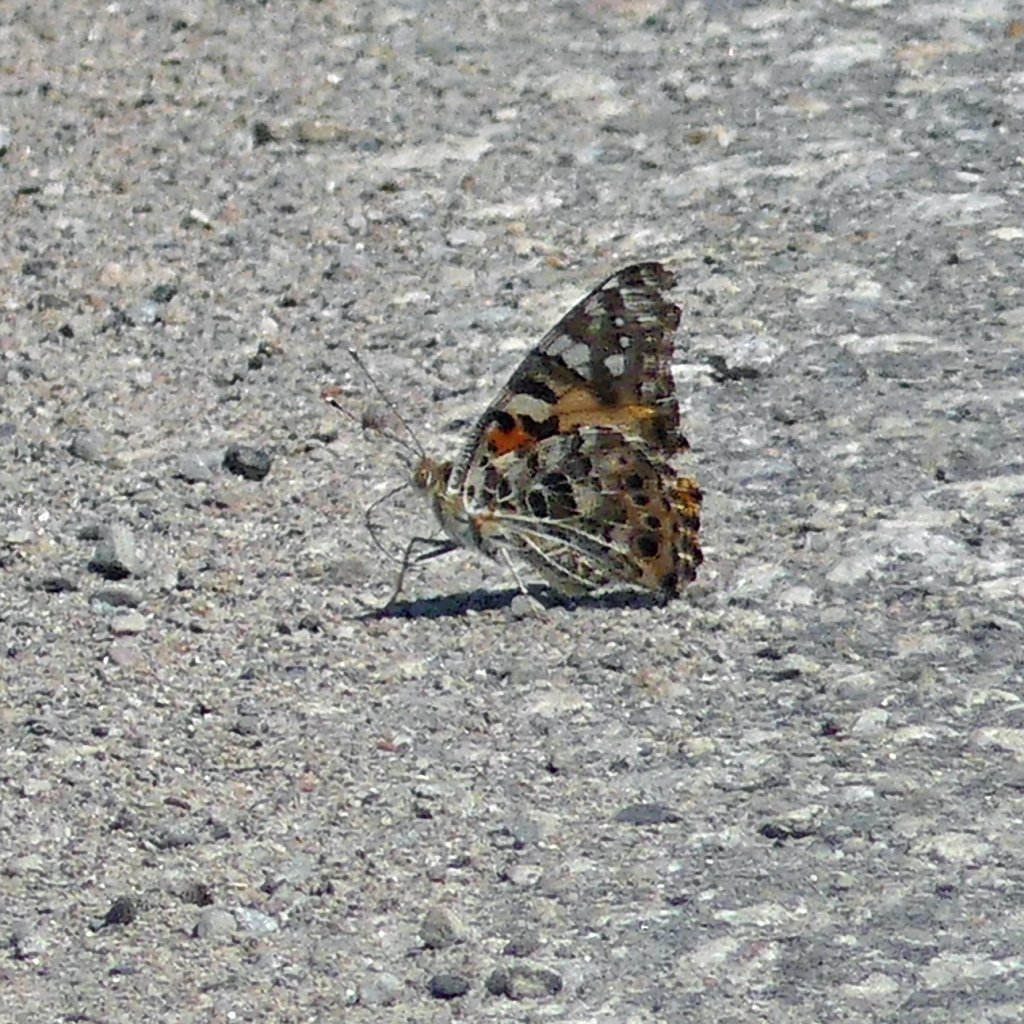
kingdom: Animalia
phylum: Arthropoda
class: Insecta
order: Lepidoptera
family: Nymphalidae
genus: Vanessa
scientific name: Vanessa cardui
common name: Painted Lady
